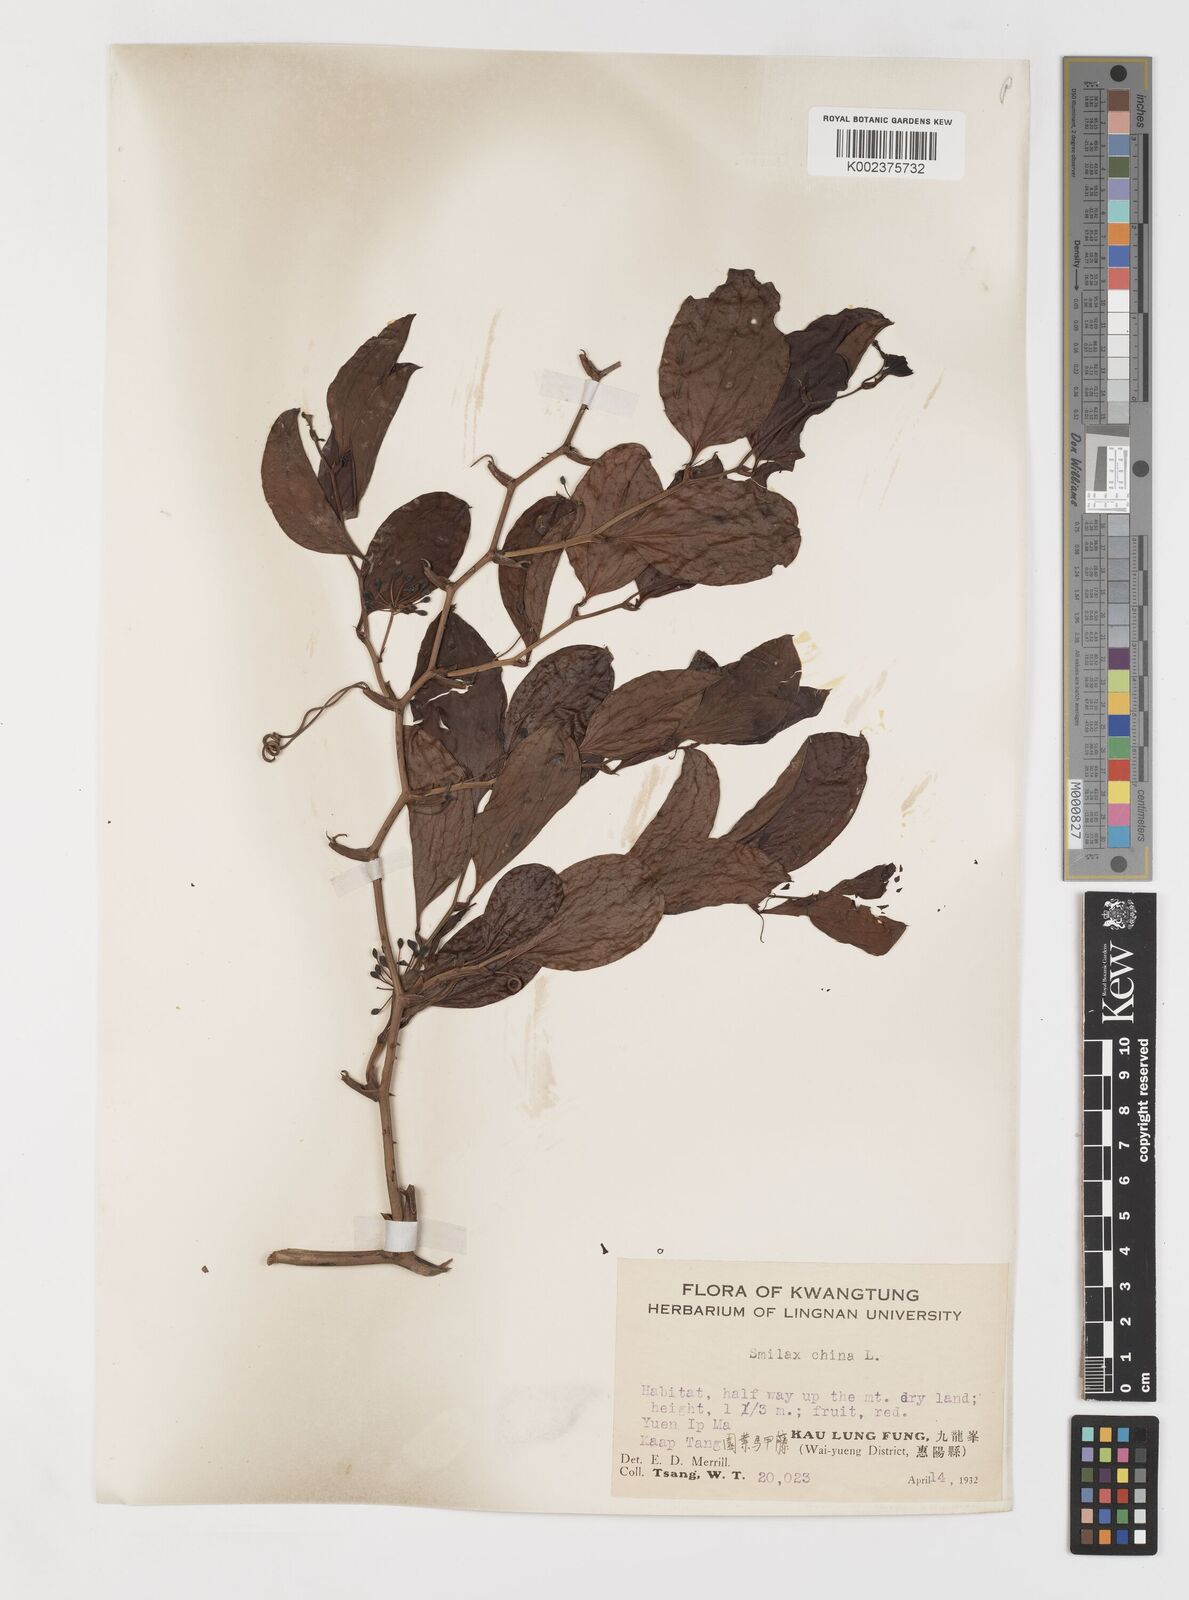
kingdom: Plantae
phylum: Tracheophyta
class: Liliopsida
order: Liliales
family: Smilacaceae
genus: Smilax
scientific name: Smilax china
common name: Chinaroot
